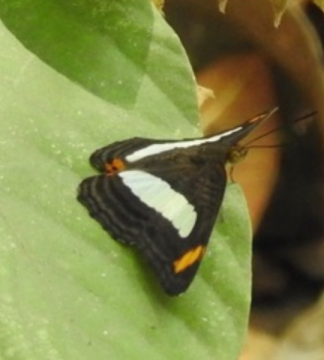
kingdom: Animalia
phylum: Arthropoda
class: Insecta
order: Lepidoptera
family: Nymphalidae
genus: Limenitis
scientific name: Limenitis iphiclus
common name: Iphicleola Sister
